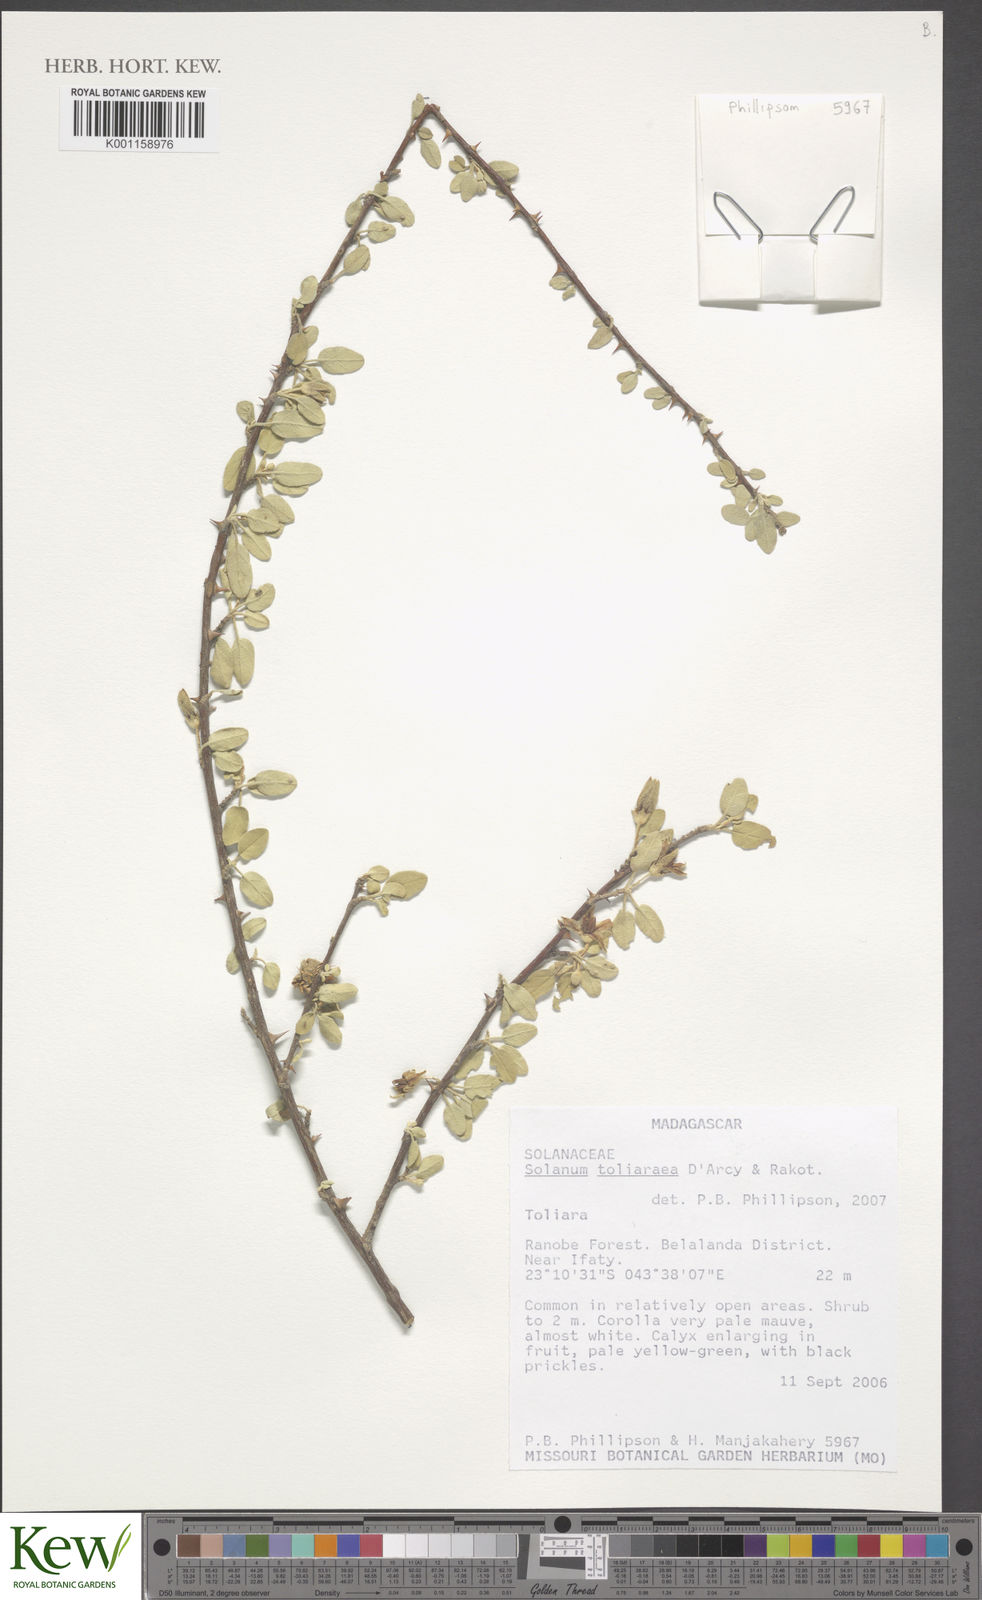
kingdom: Plantae
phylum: Tracheophyta
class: Magnoliopsida
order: Solanales
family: Solanaceae
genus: Solanum
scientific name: Solanum toliaraea
